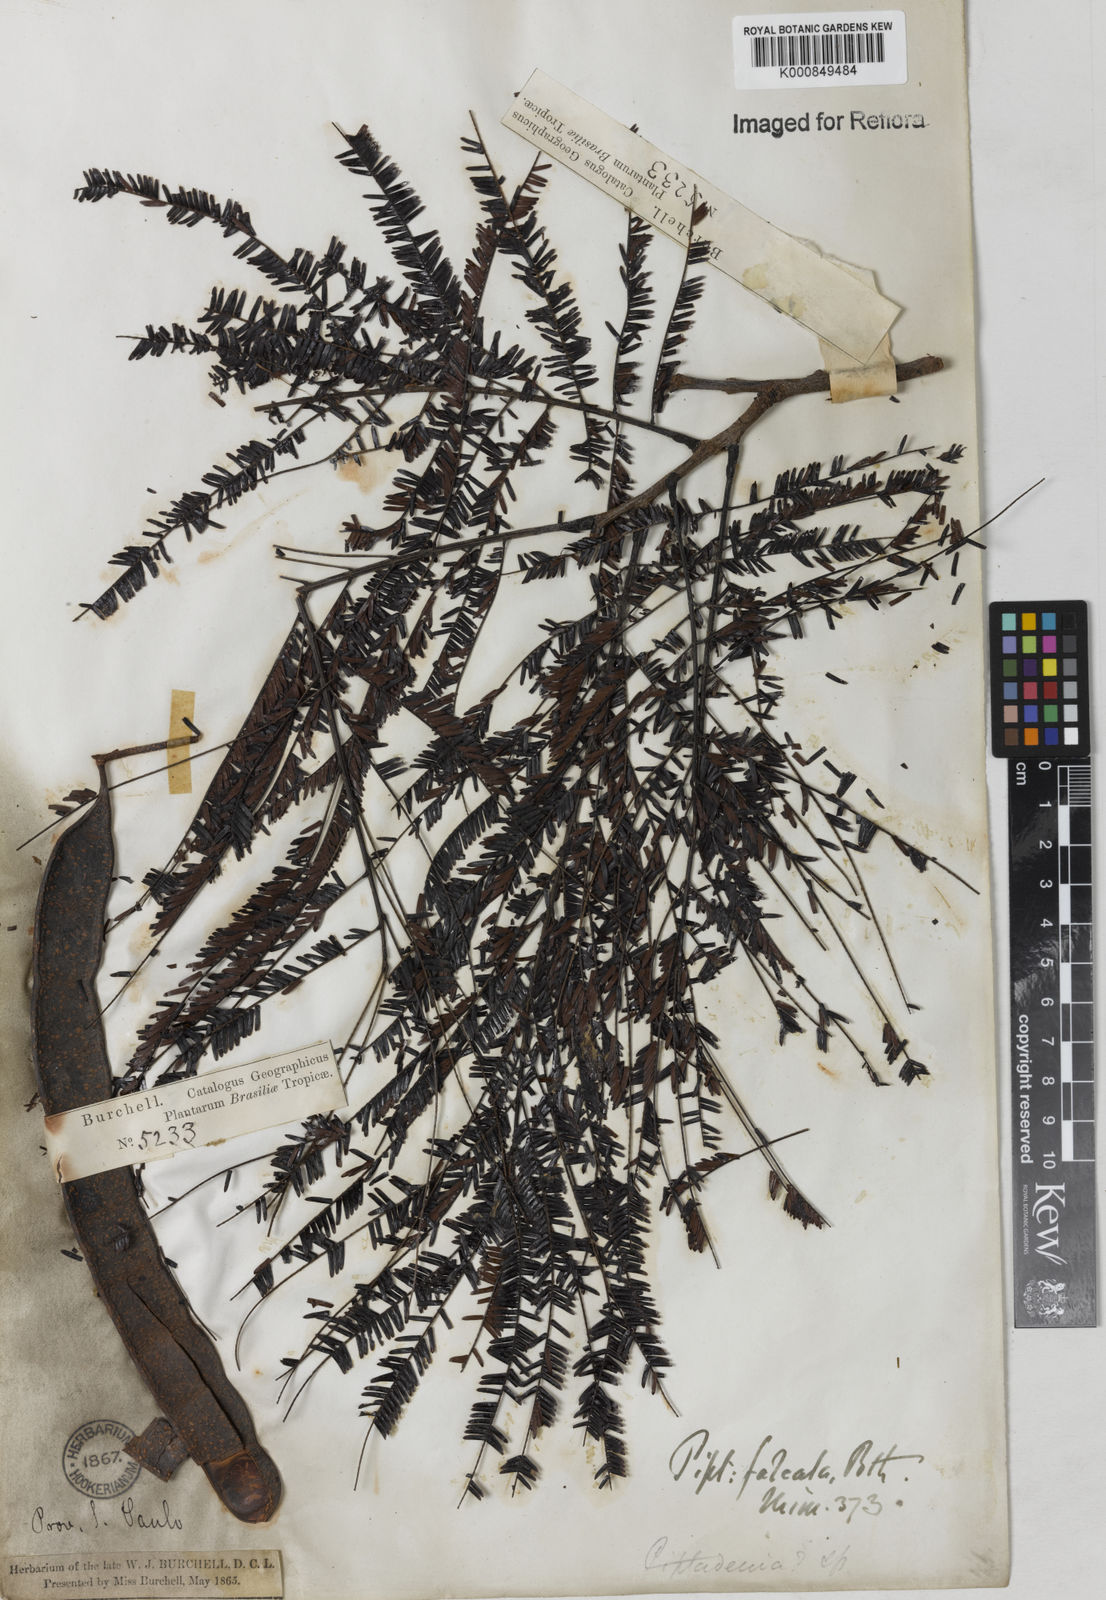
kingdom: Plantae
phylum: Tracheophyta
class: Magnoliopsida
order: Fabales
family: Fabaceae
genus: Anadenanthera
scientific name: Anadenanthera peregrina
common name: Cohoba
